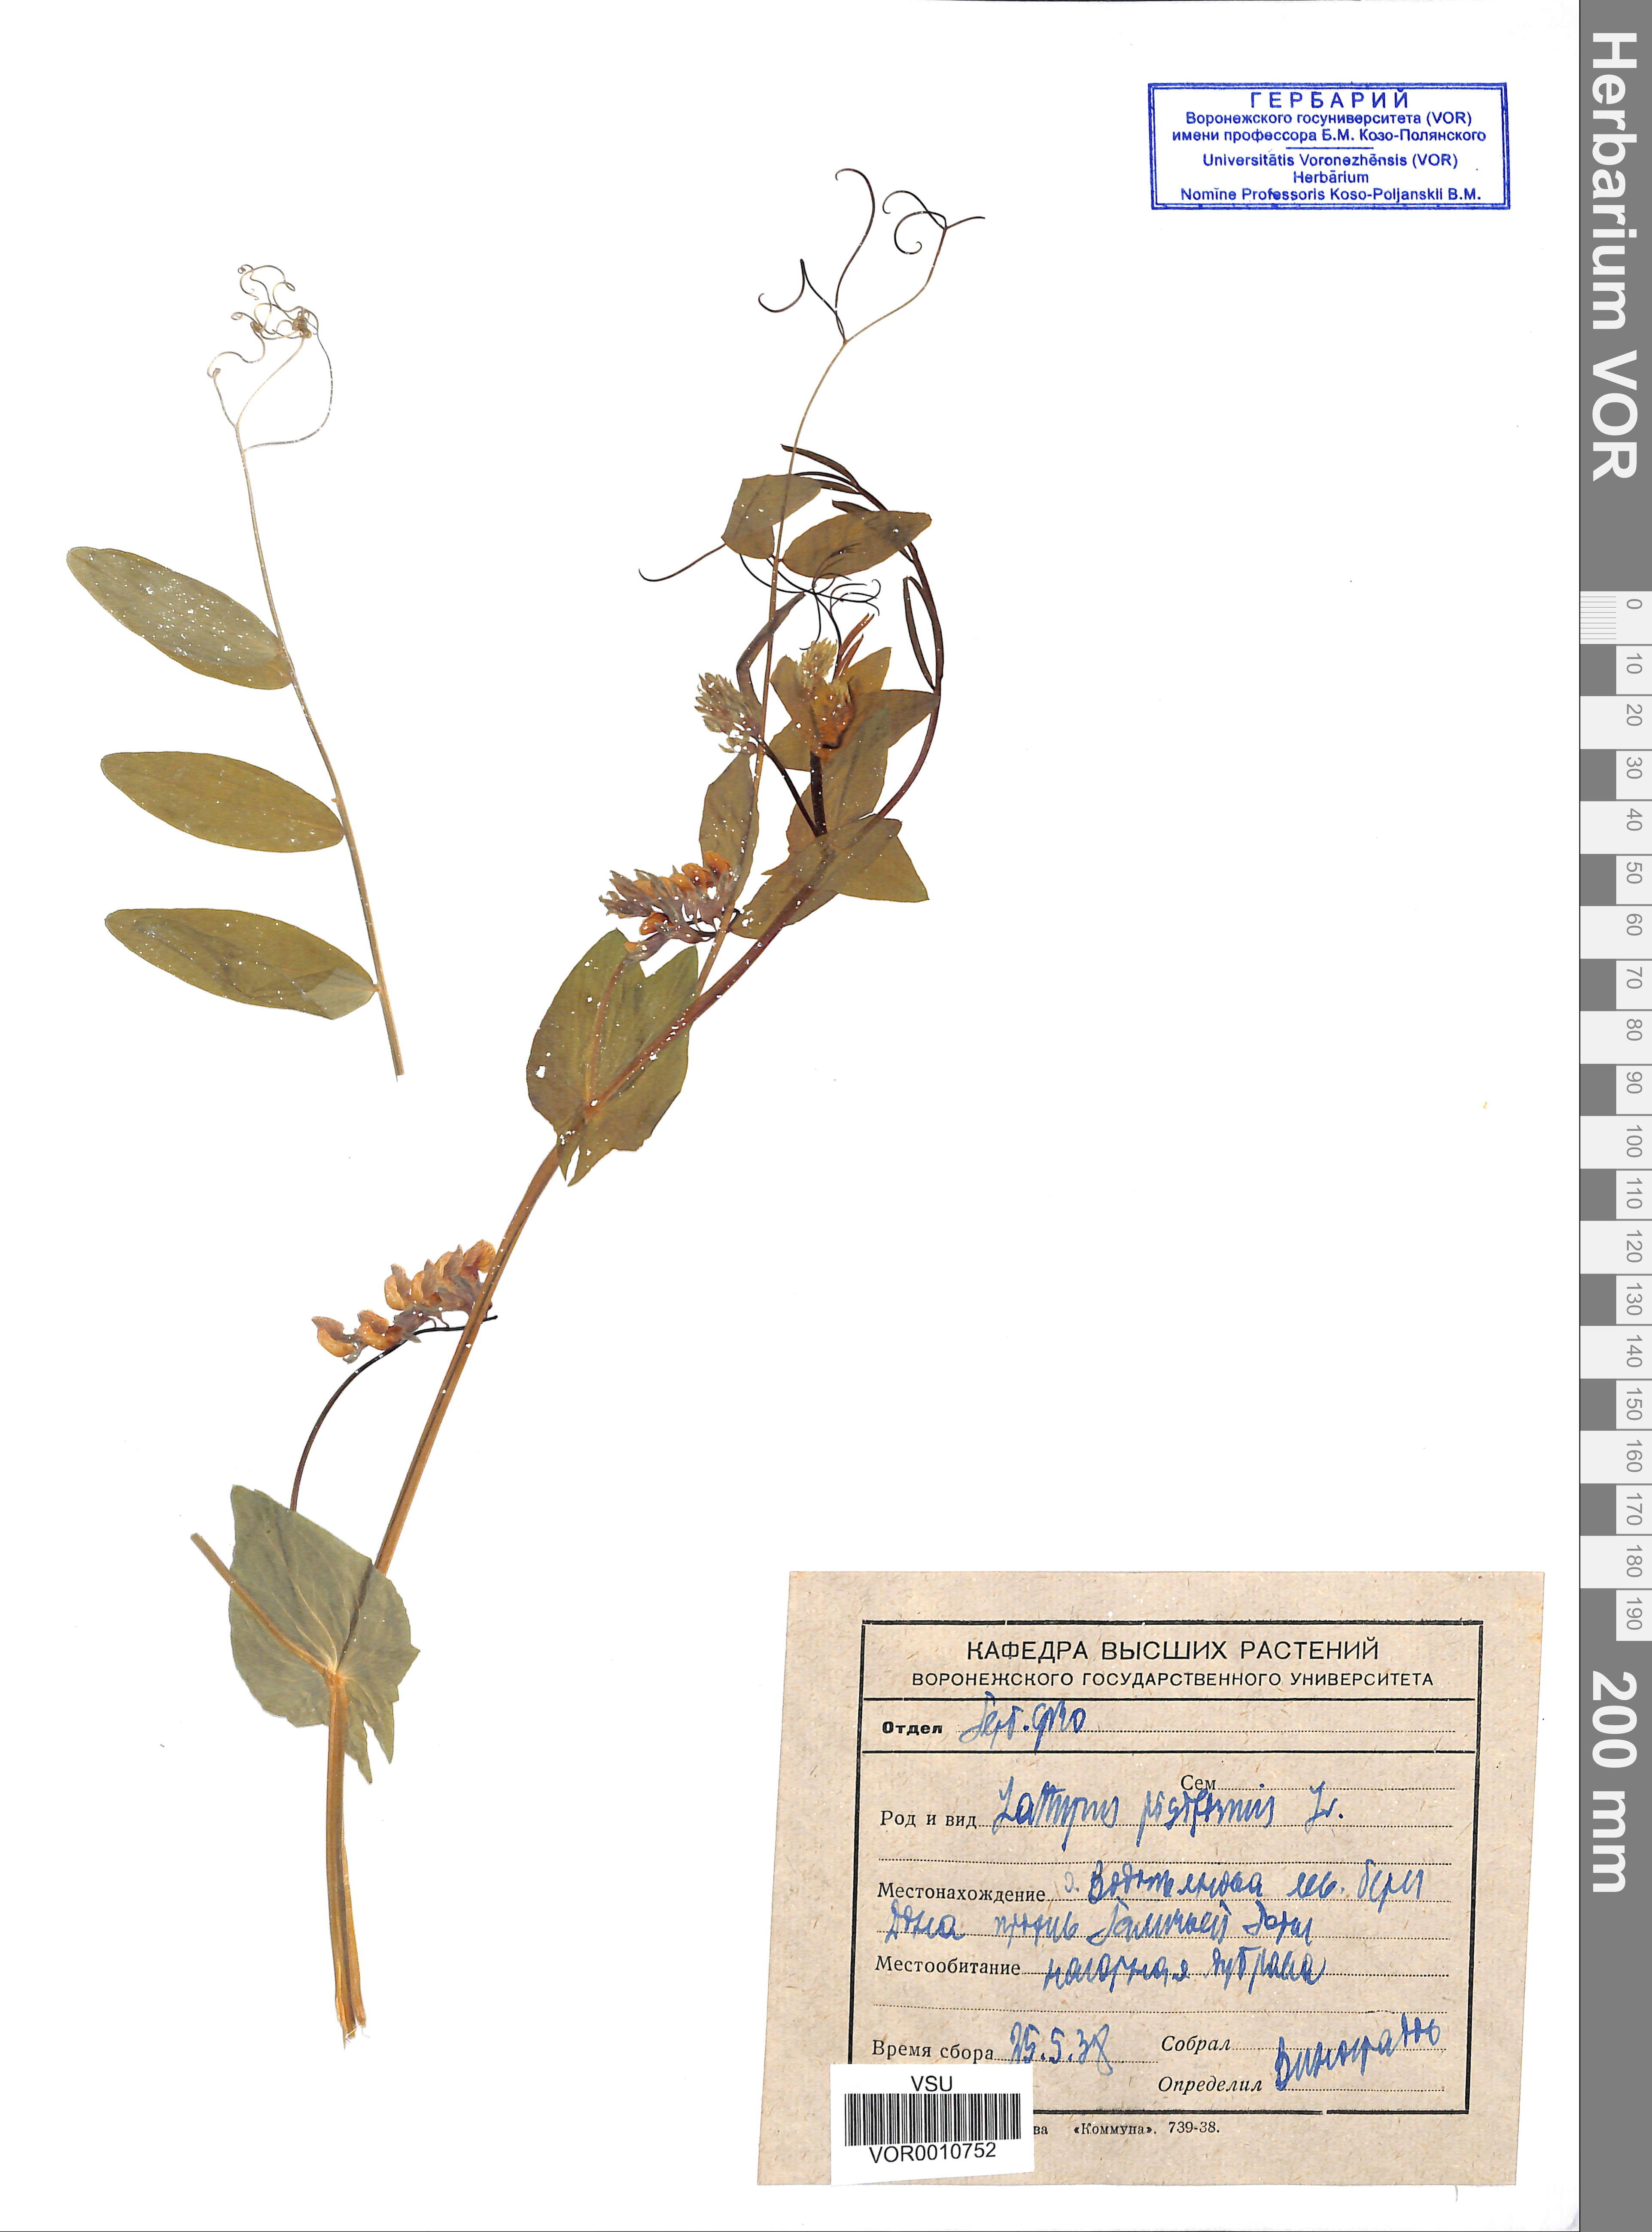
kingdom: Plantae
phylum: Tracheophyta
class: Magnoliopsida
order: Fabales
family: Fabaceae
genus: Lathyrus
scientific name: Lathyrus pisiformis
